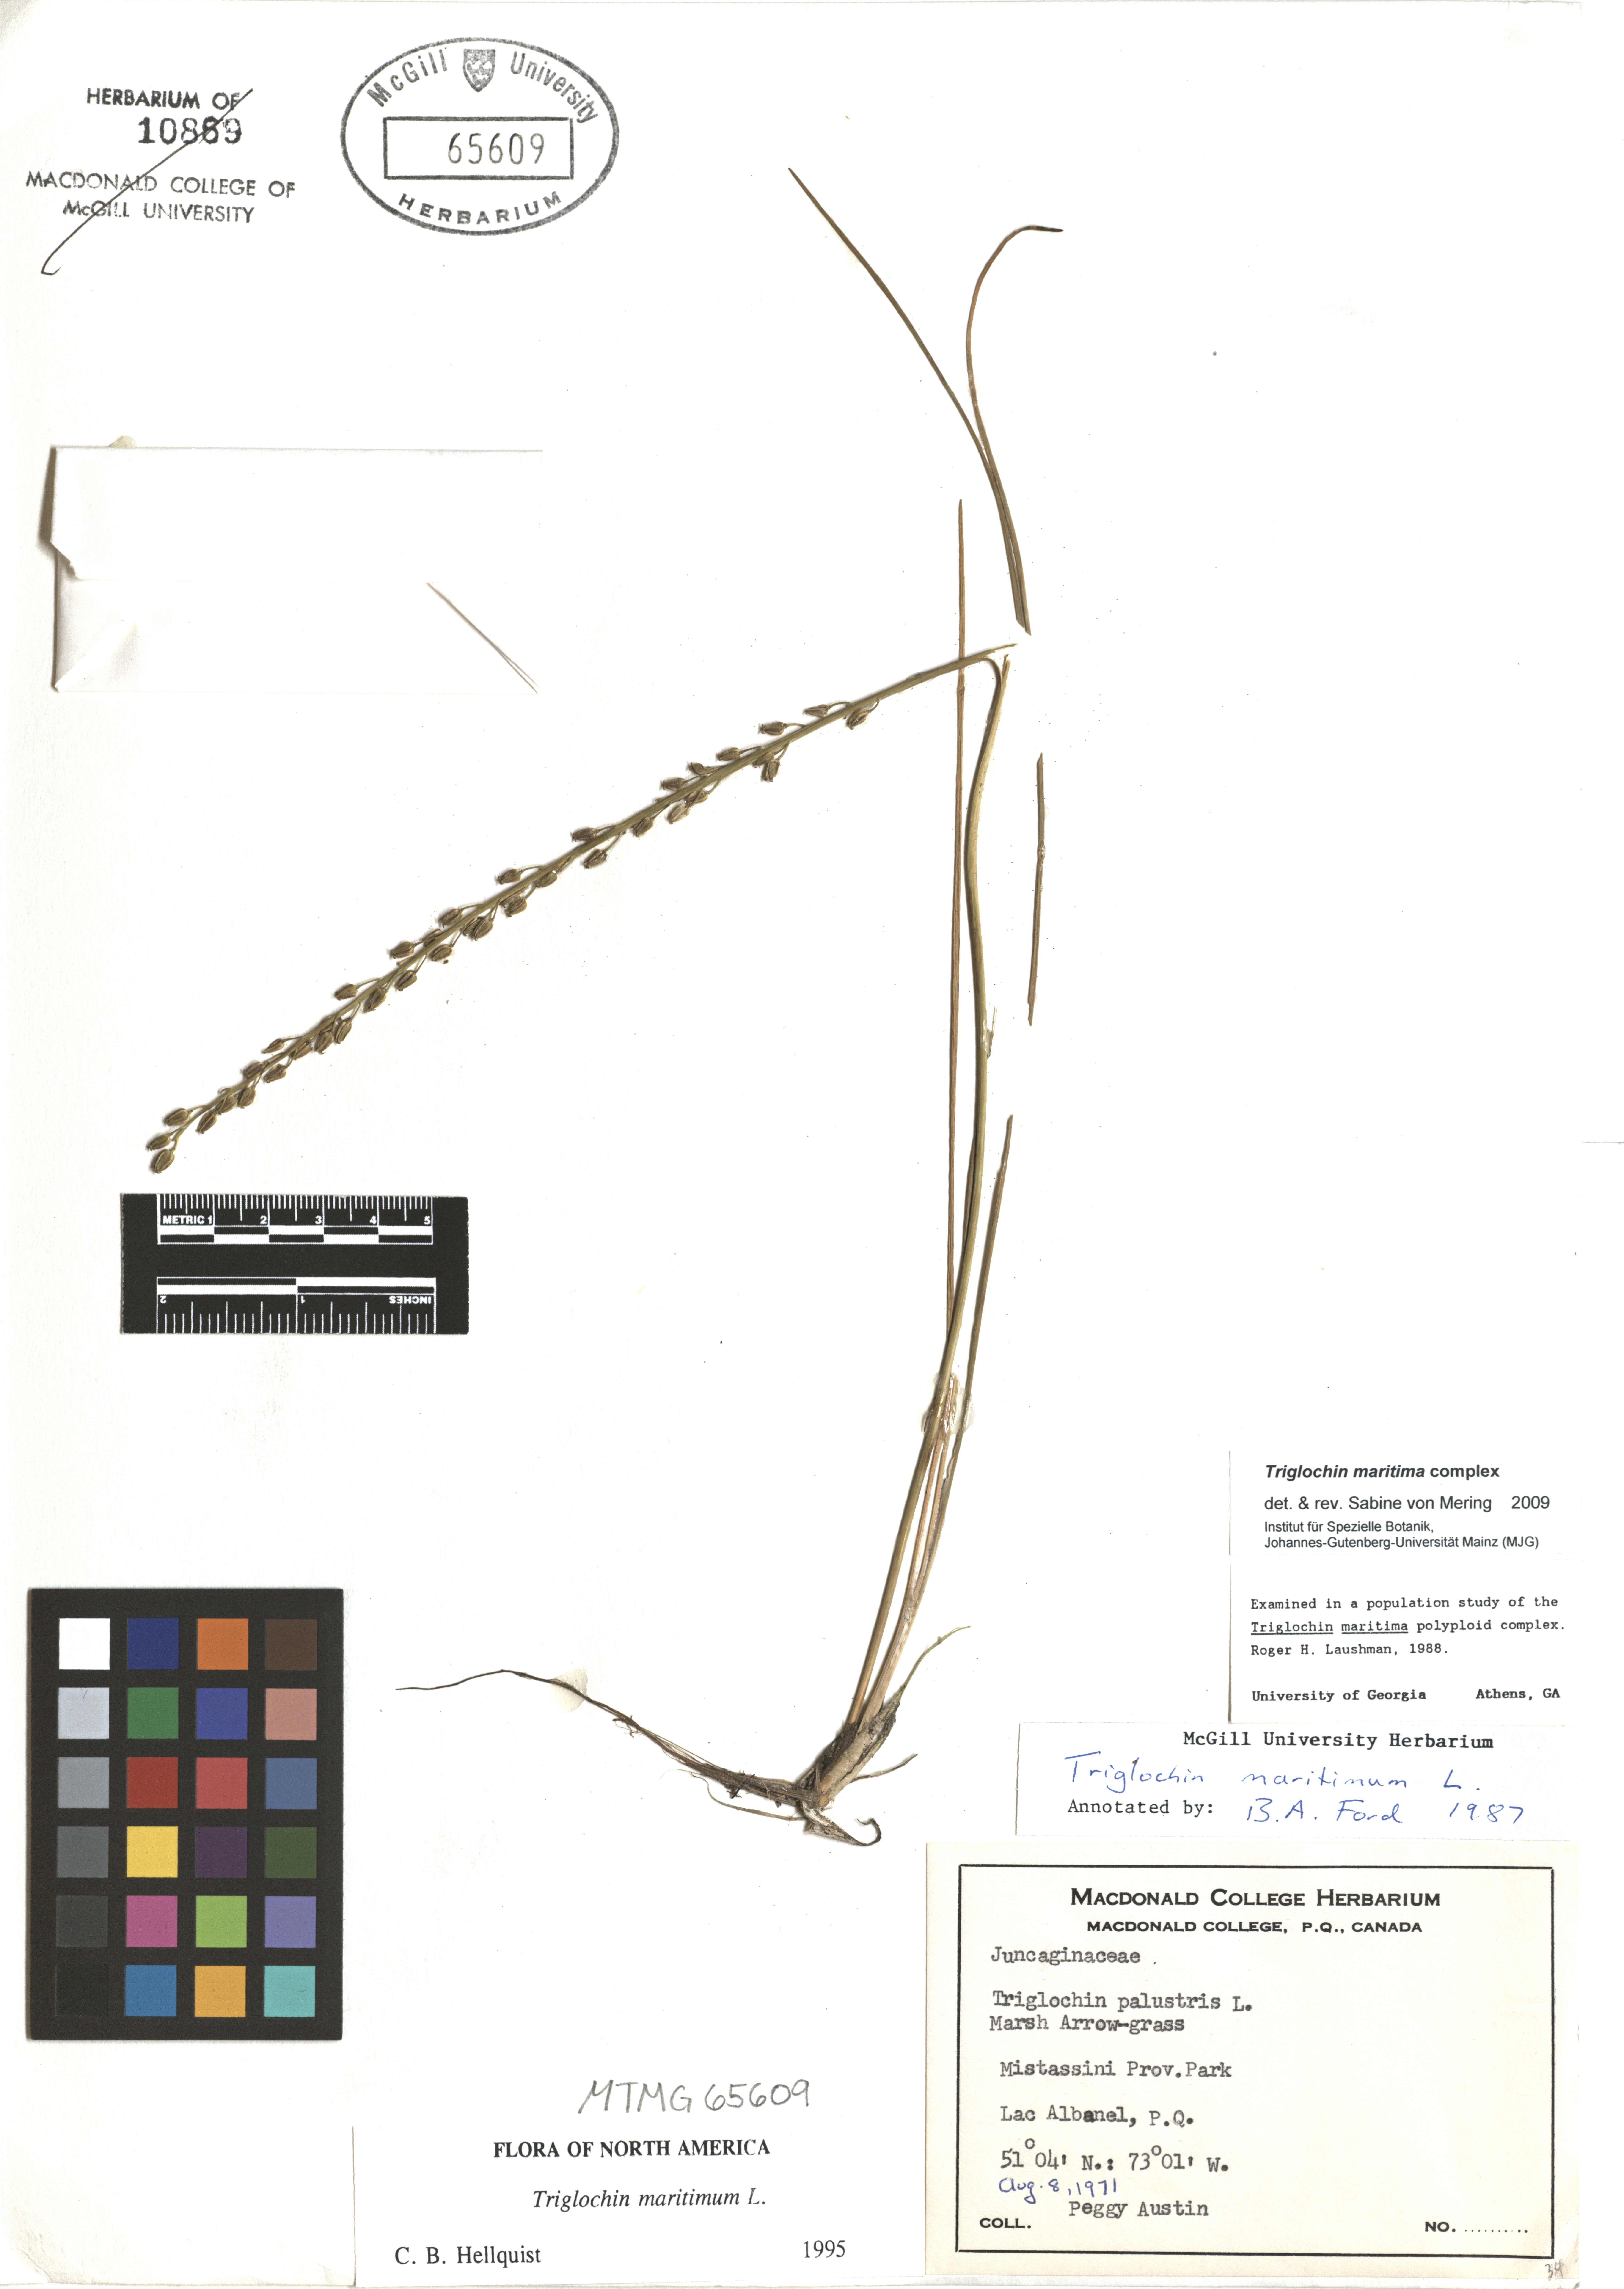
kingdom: Plantae
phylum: Tracheophyta
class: Liliopsida
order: Alismatales
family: Juncaginaceae
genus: Triglochin
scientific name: Triglochin maritima
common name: Sea arrowgrass
